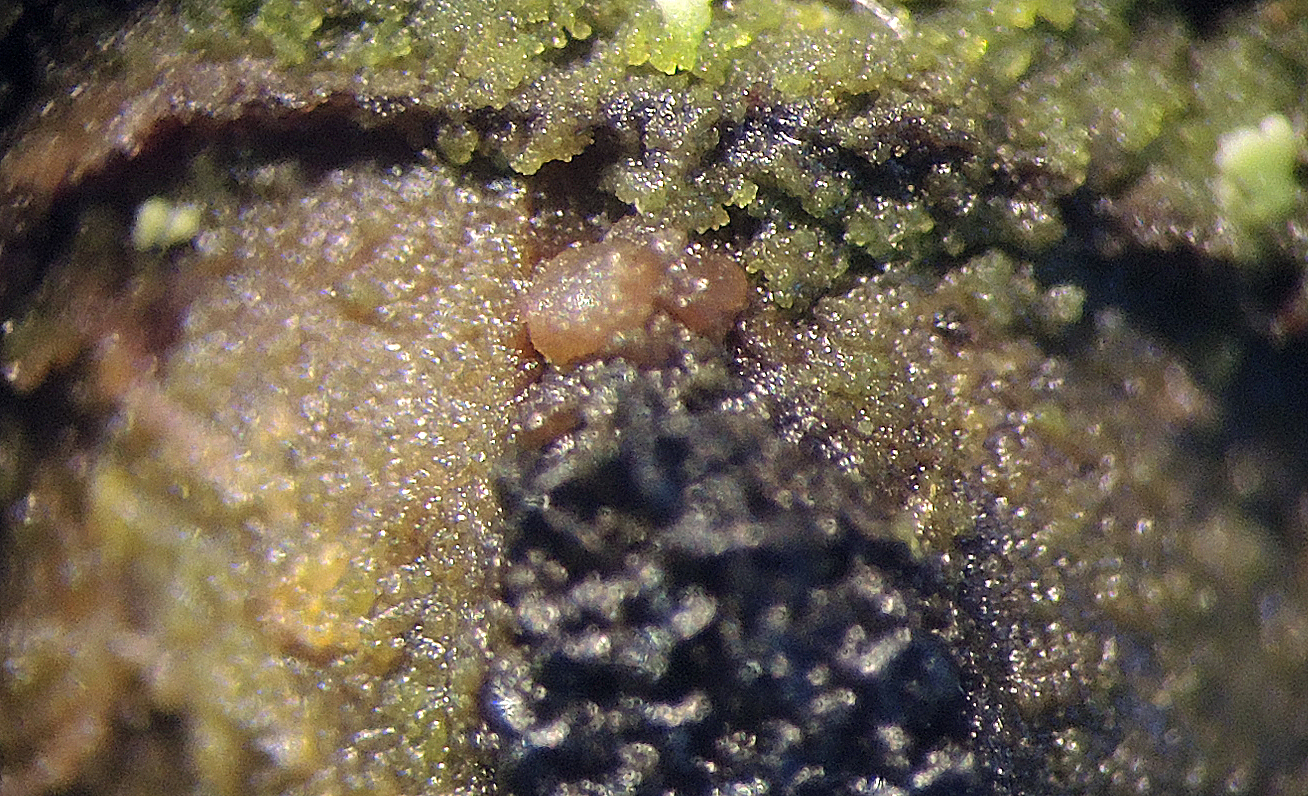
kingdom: Fungi
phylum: Ascomycota
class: Leotiomycetes
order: Helotiales
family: Pezizellaceae
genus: Pezizella
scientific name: Pezizella uvidula
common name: ved-orangeskive
